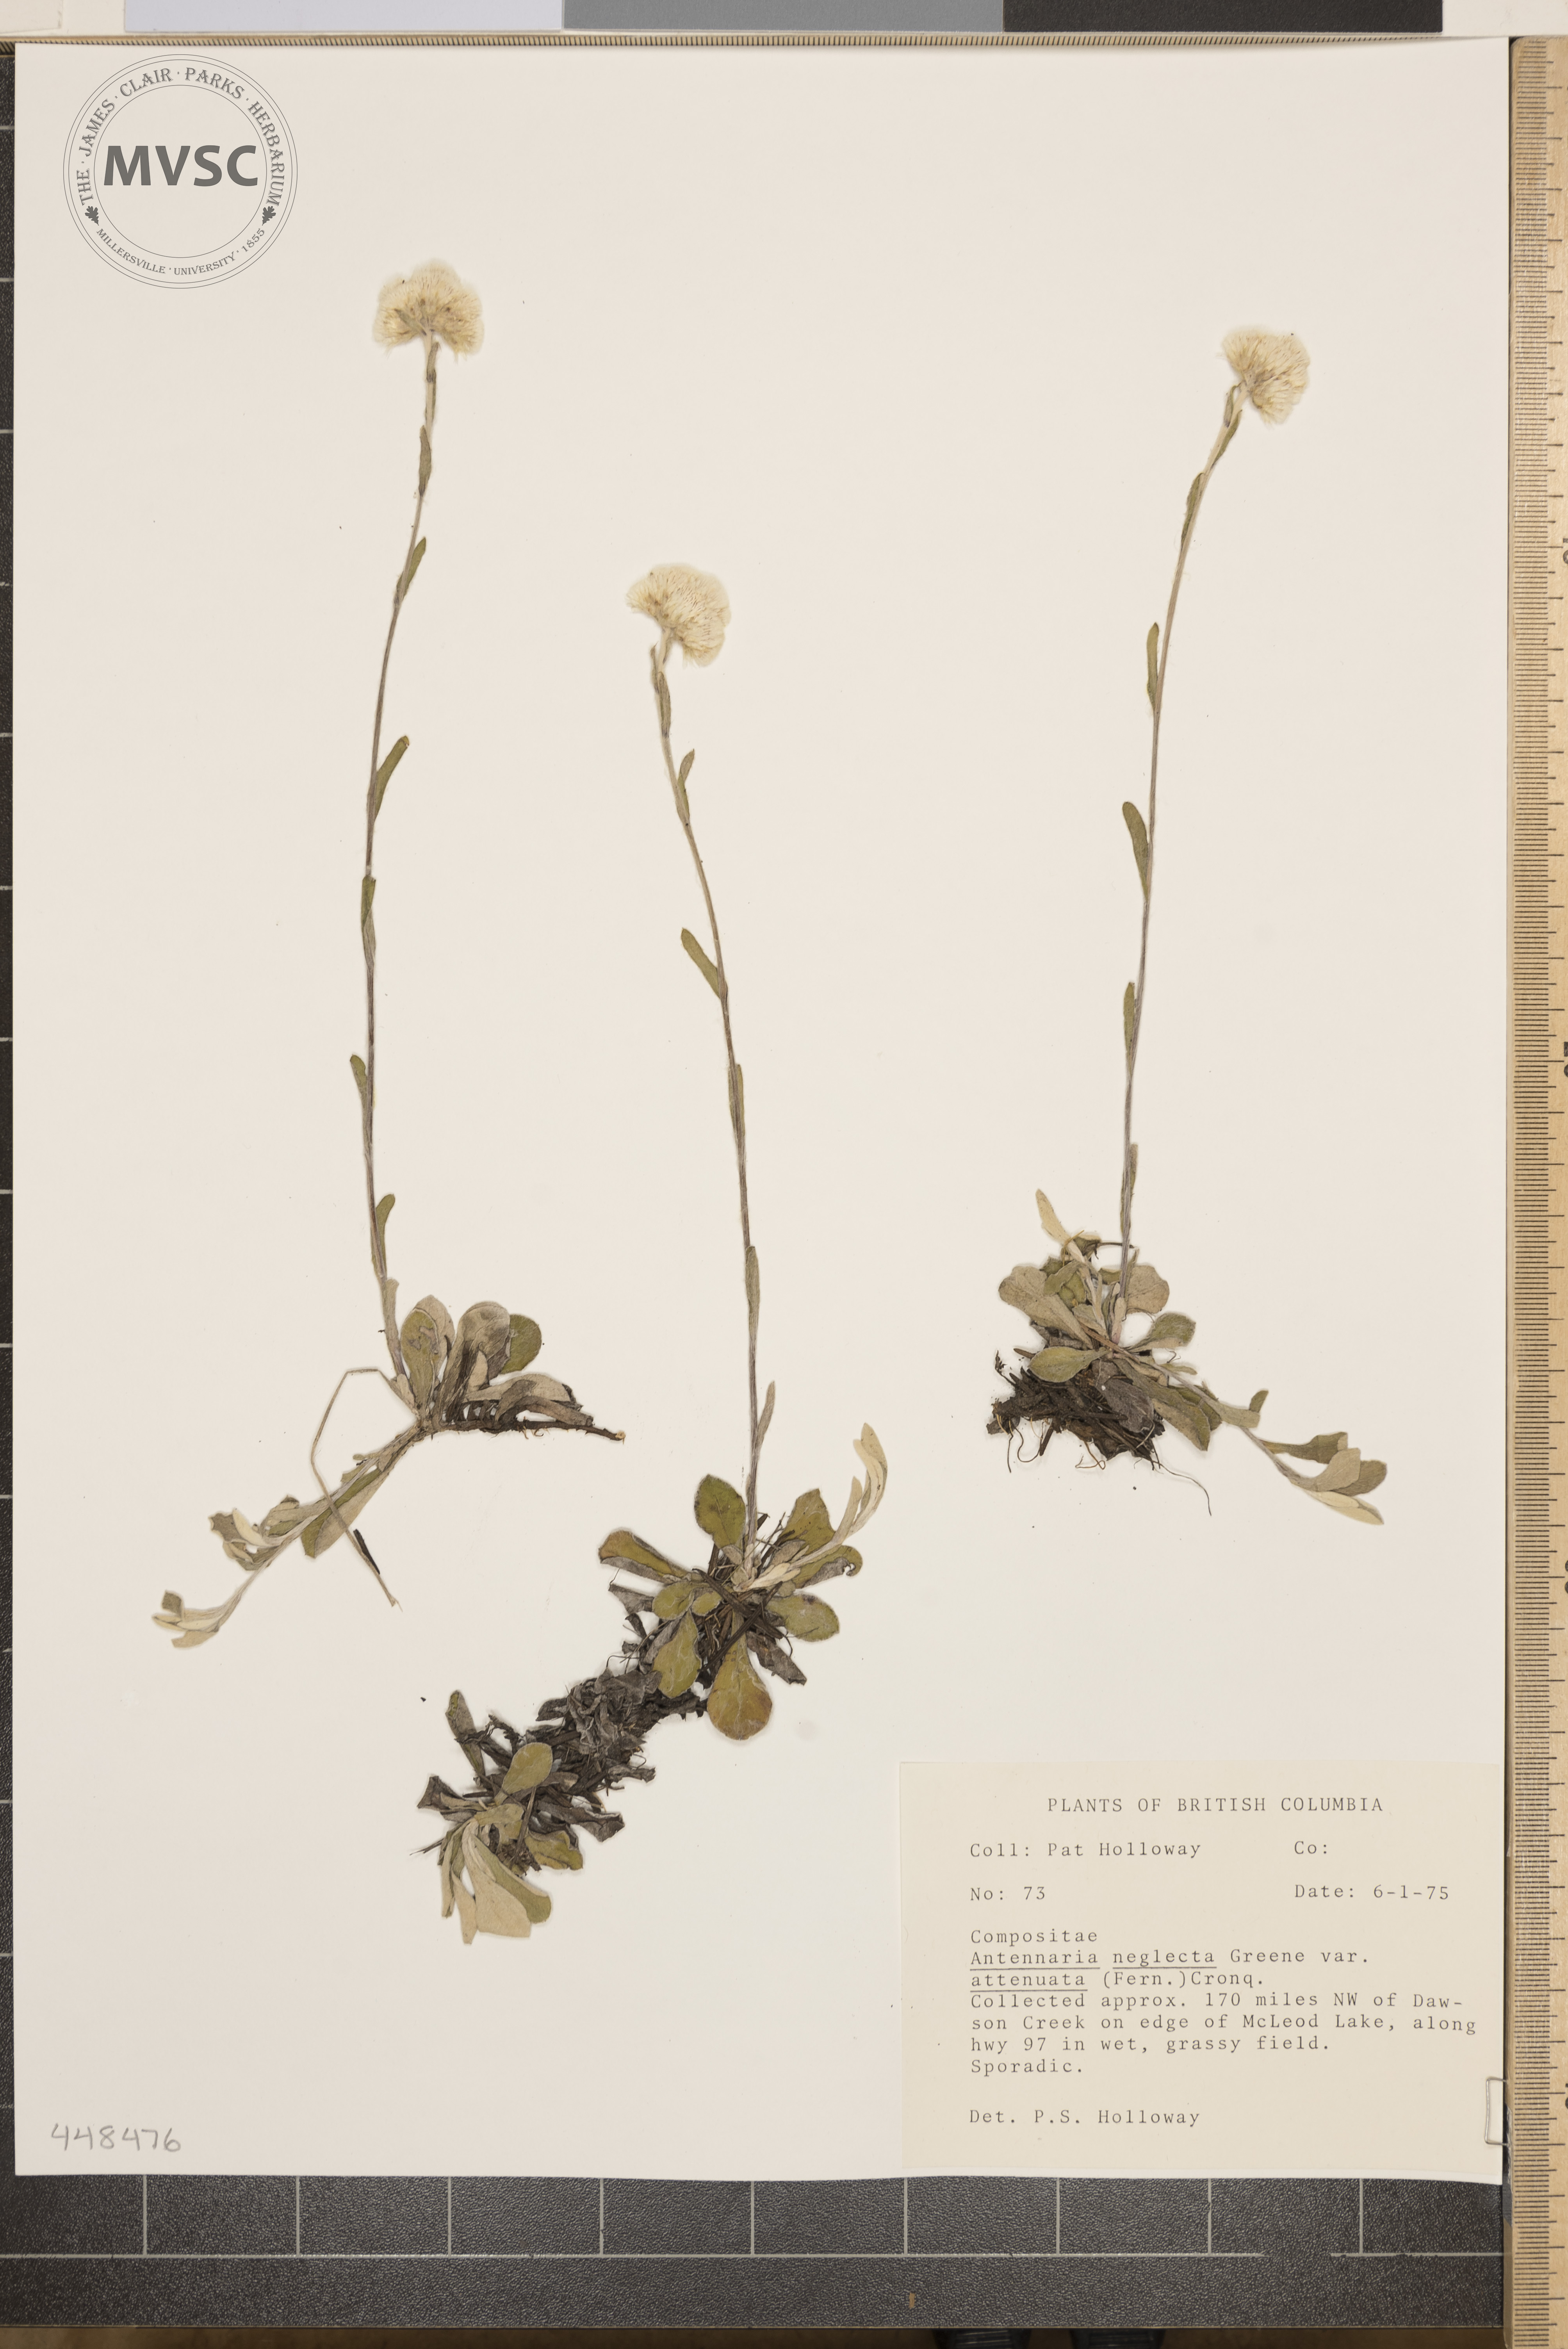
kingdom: Plantae
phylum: Tracheophyta
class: Magnoliopsida
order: Asterales
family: Asteraceae
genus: Antennaria
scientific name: Antennaria neglecta
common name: Field pussytoes
